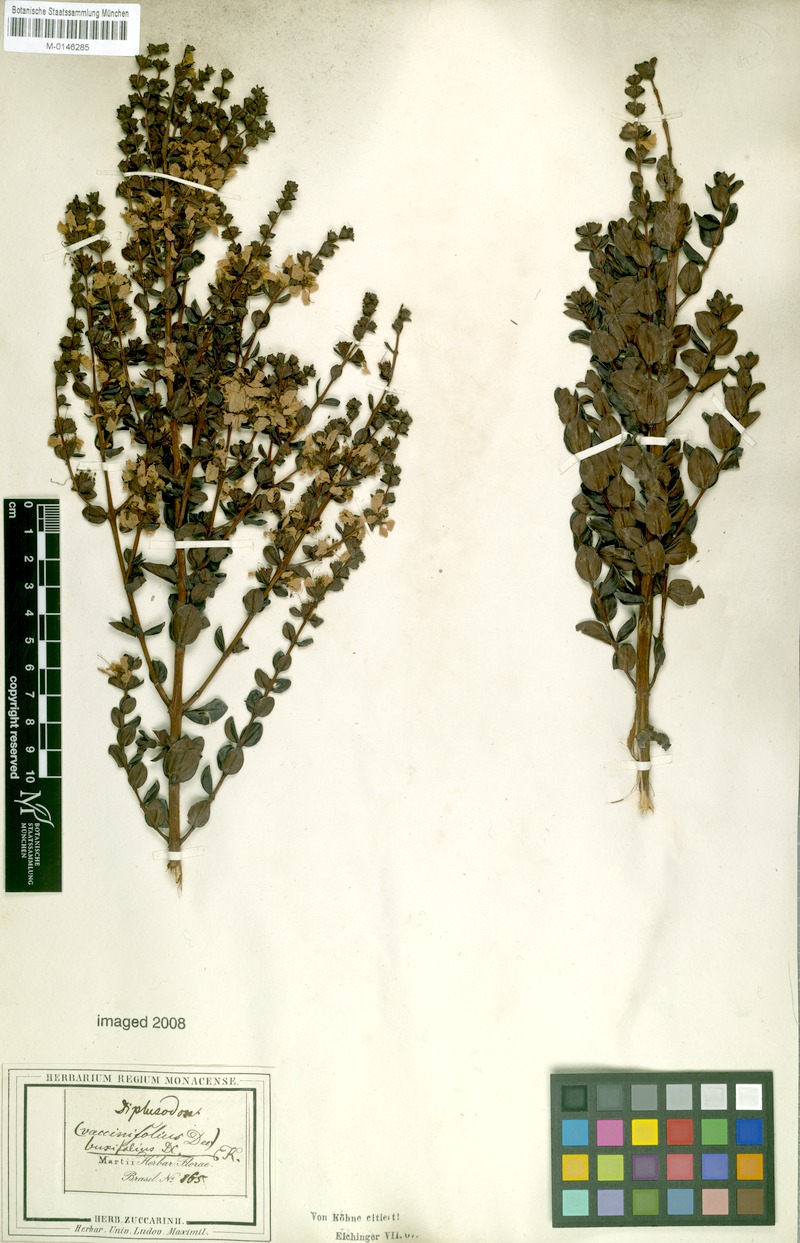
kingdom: Plantae
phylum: Tracheophyta
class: Magnoliopsida
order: Myrtales
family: Lythraceae
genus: Diplusodon
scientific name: Diplusodon buxifolius
